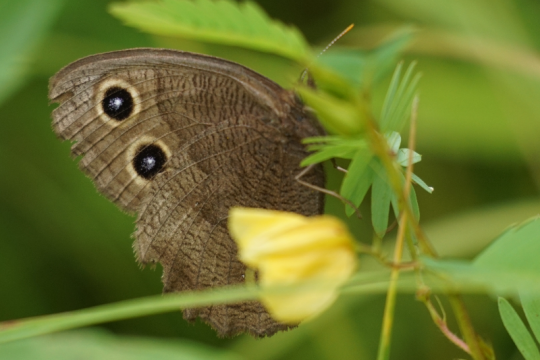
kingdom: Animalia
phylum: Arthropoda
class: Insecta
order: Lepidoptera
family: Nymphalidae
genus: Cercyonis
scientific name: Cercyonis pegala
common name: Common Wood-Nymph
